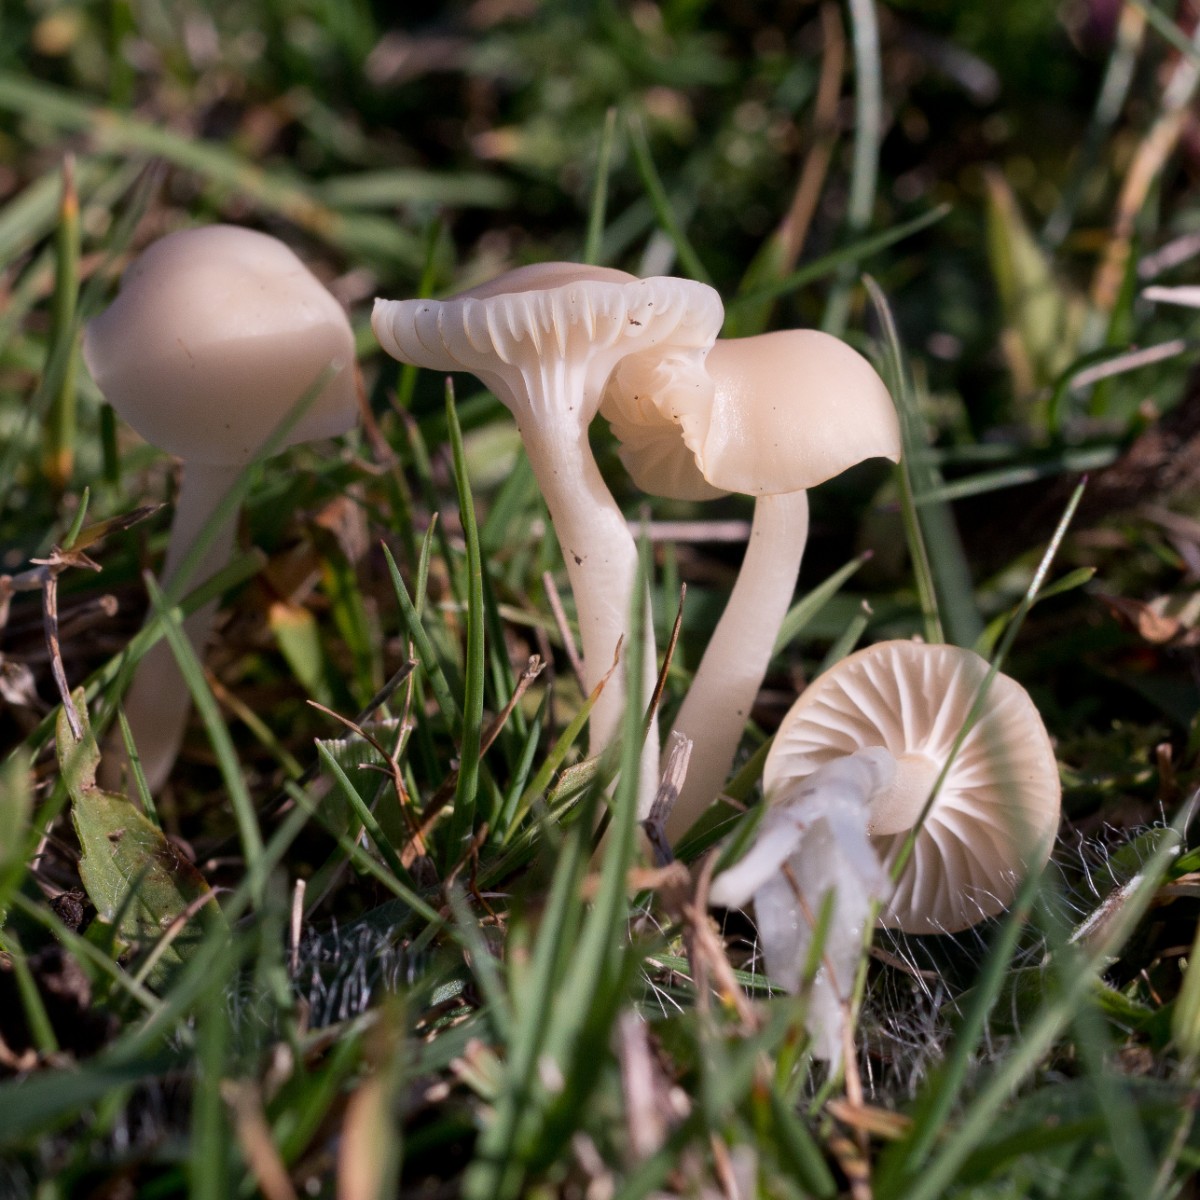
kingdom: Fungi
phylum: Basidiomycota
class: Agaricomycetes
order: Agaricales
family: Hygrophoraceae
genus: Cuphophyllus
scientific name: Cuphophyllus russocoriaceus
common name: ruslæder-vokshat
